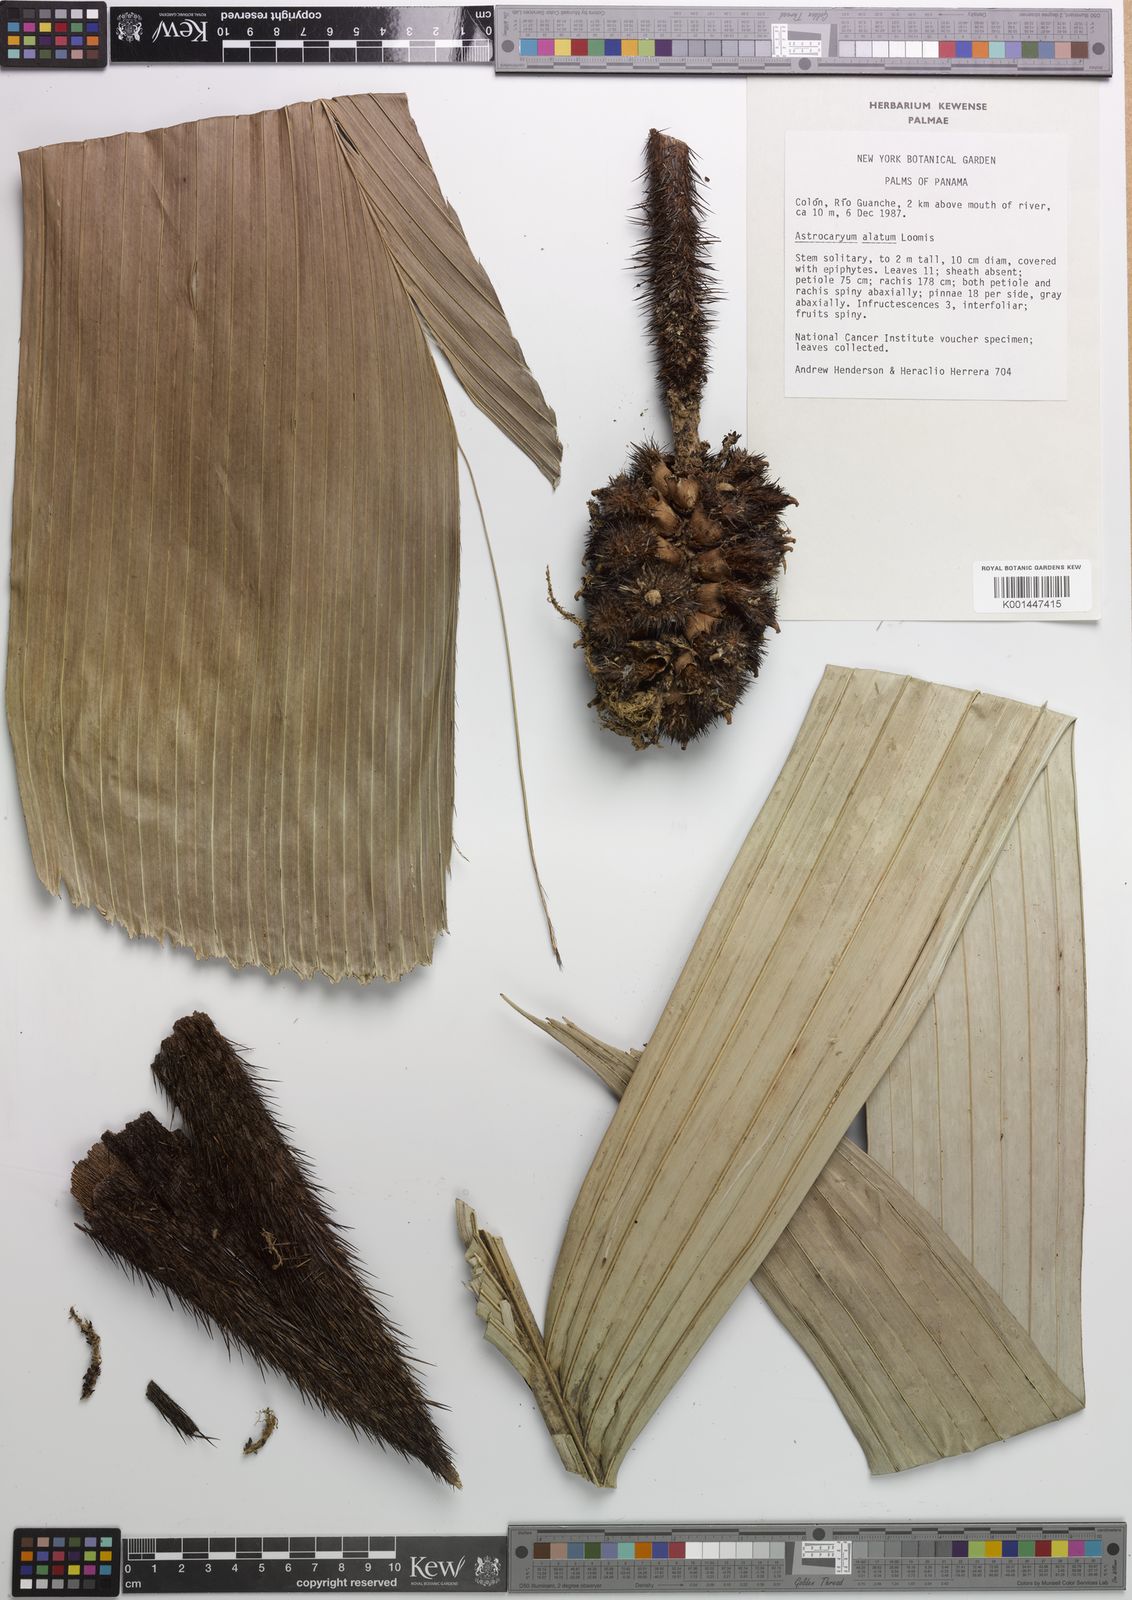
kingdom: Plantae
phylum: Tracheophyta
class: Liliopsida
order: Arecales
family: Arecaceae
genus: Astrocaryum
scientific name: Astrocaryum alatum
